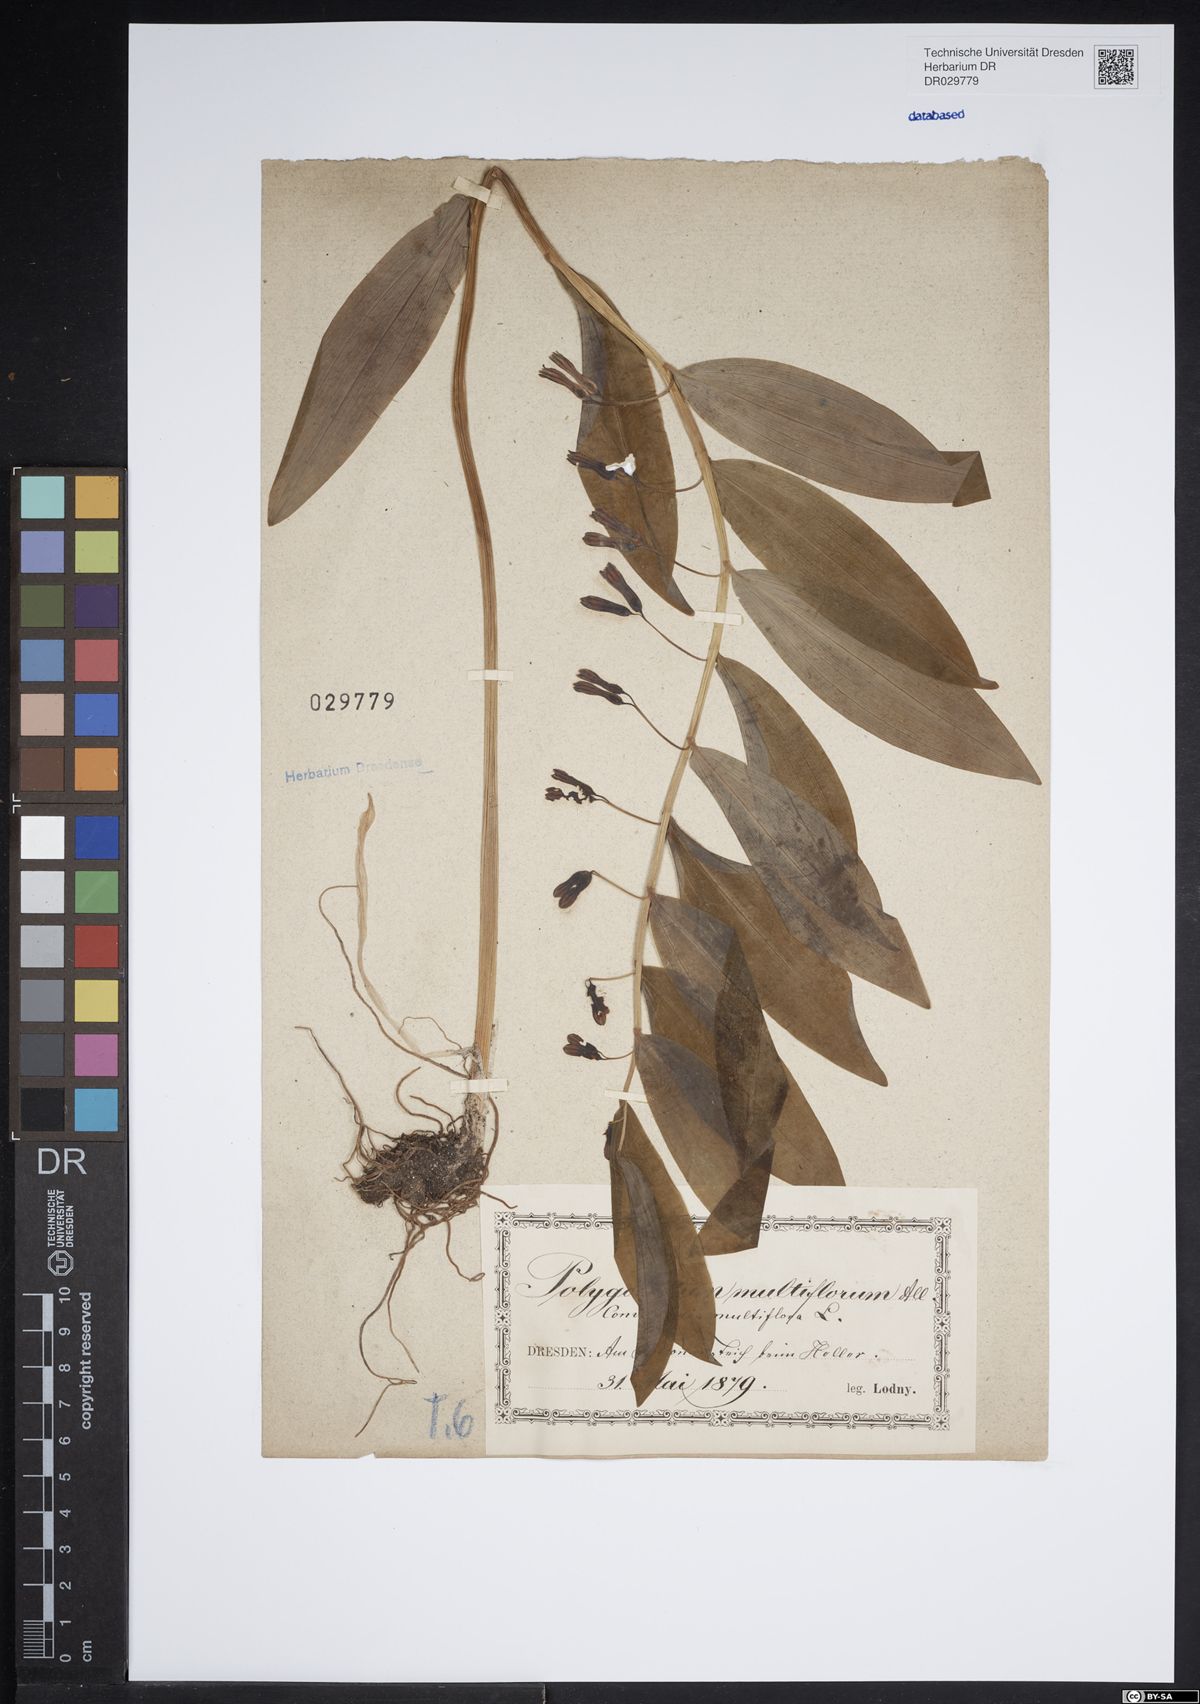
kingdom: Plantae
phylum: Tracheophyta
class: Liliopsida
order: Asparagales
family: Asparagaceae
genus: Polygonatum
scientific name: Polygonatum multiflorum
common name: Solomon's-seal
